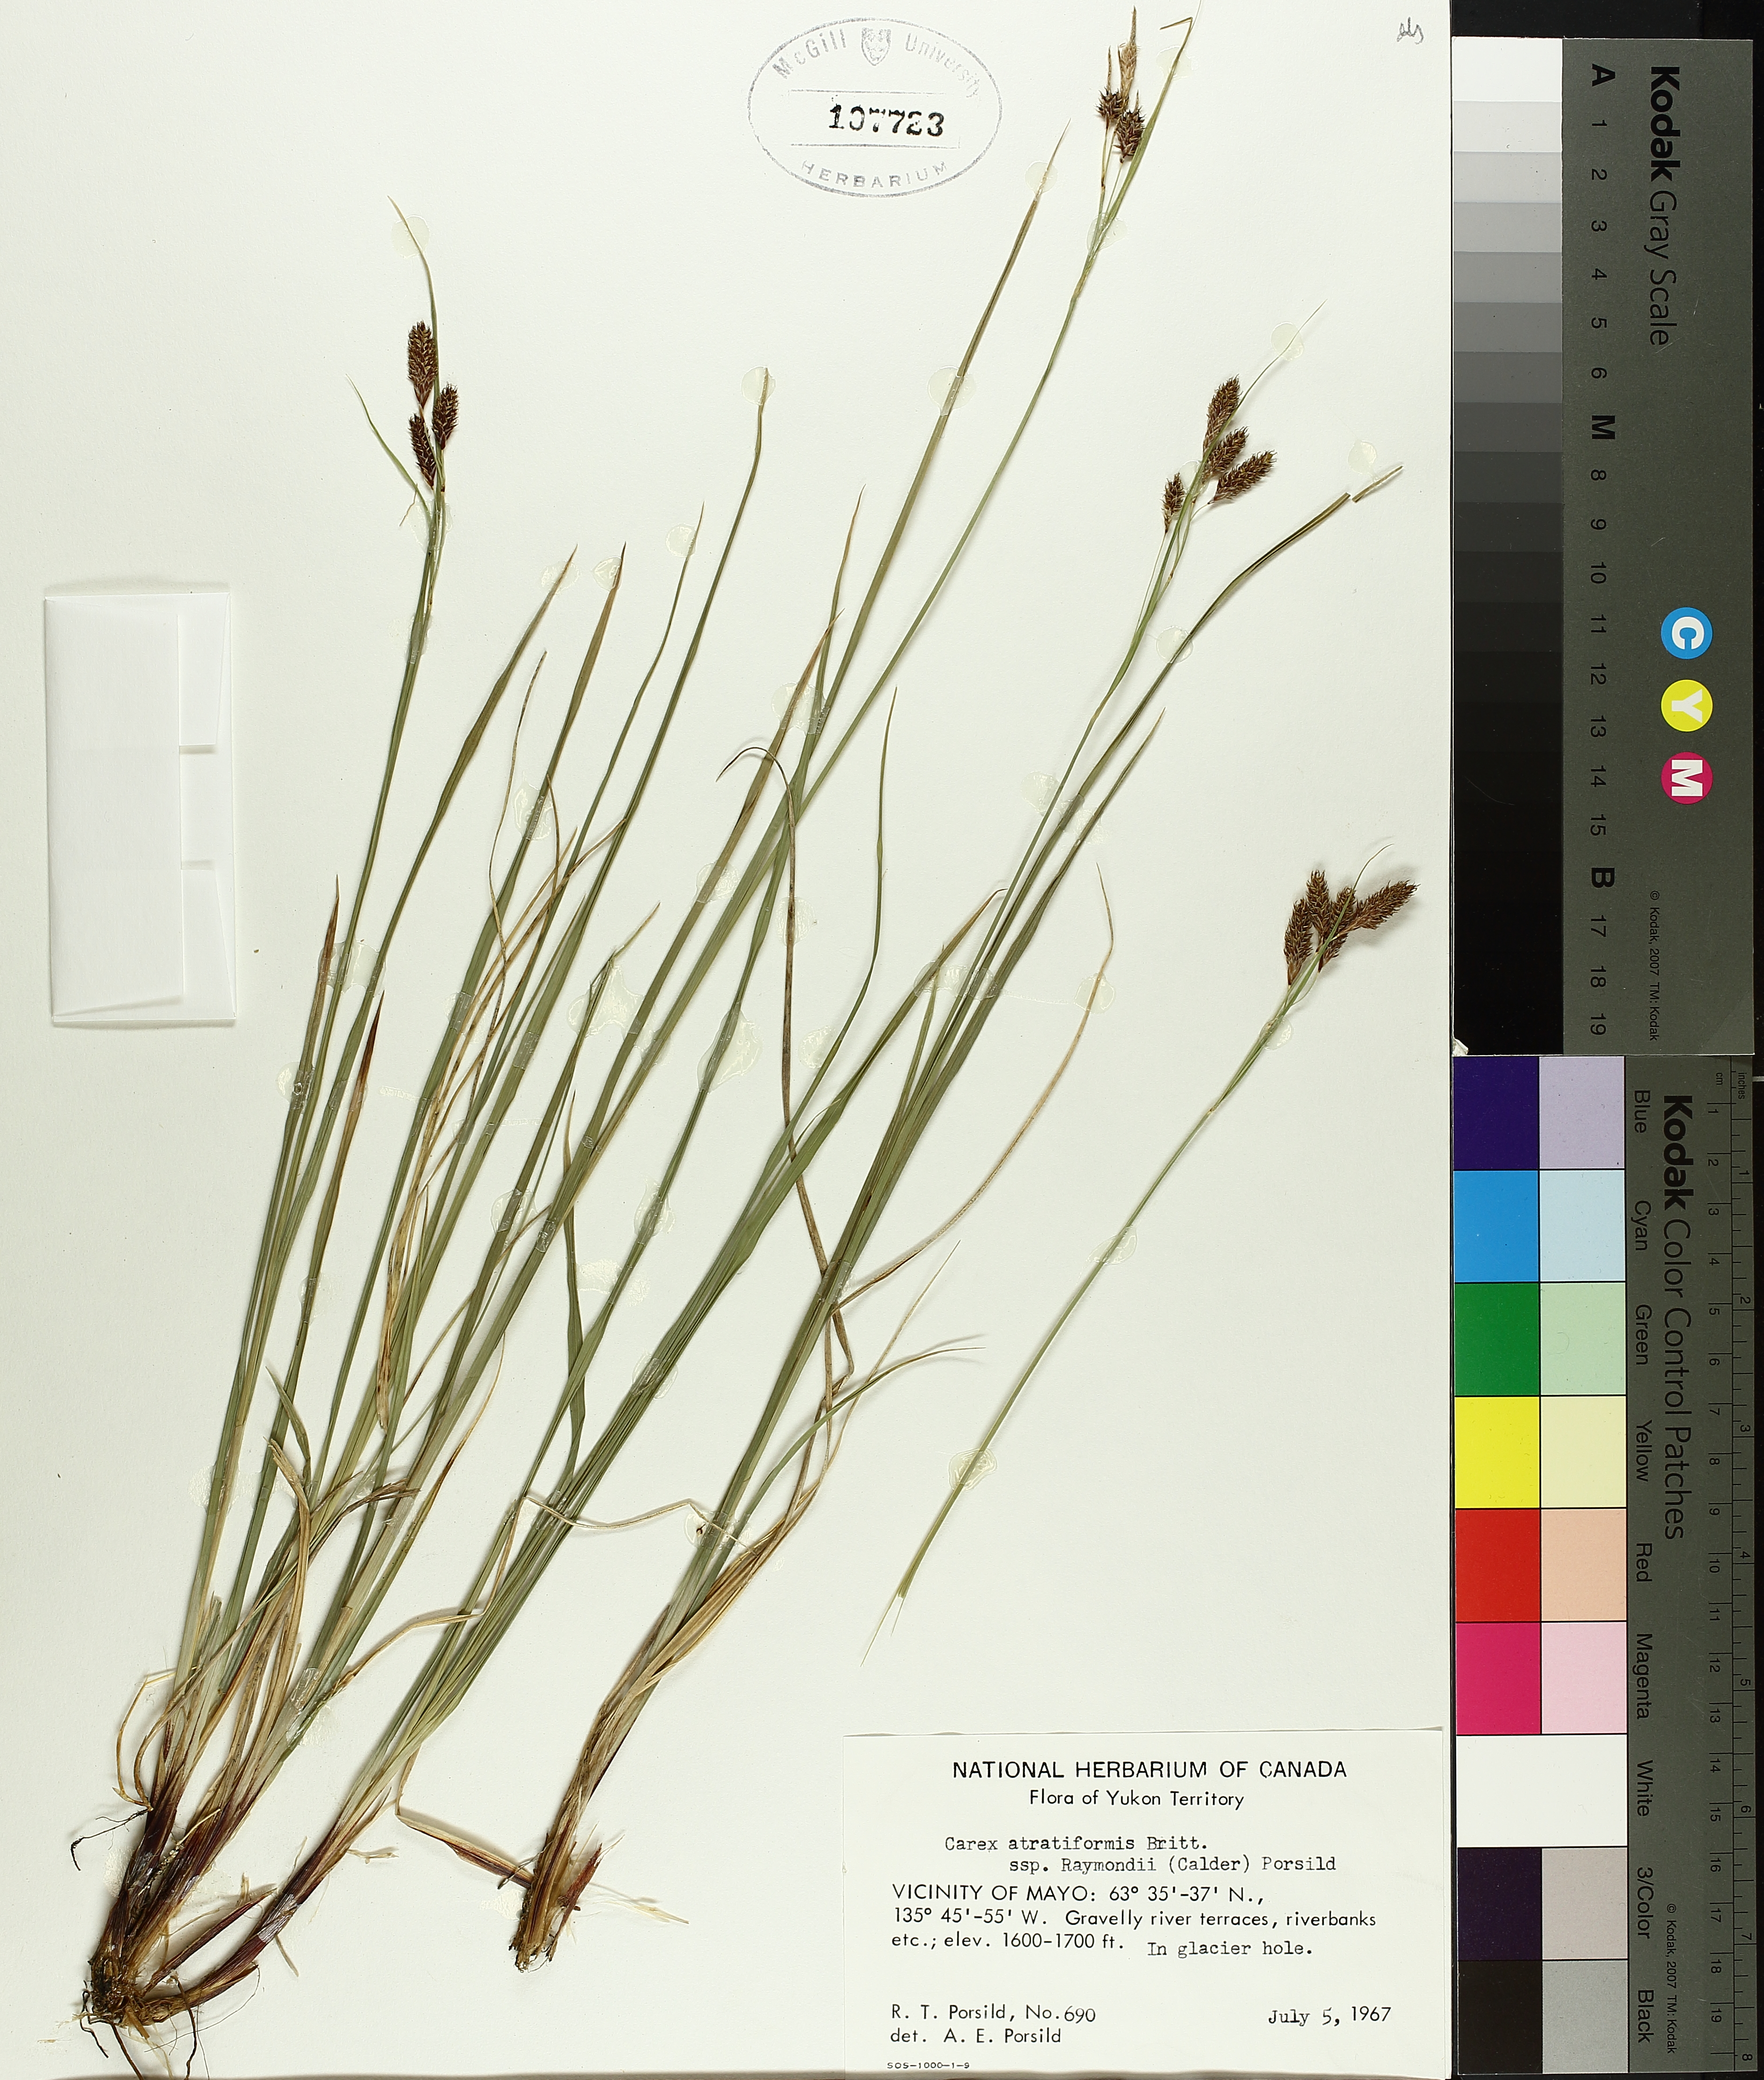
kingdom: Plantae
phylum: Tracheophyta
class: Liliopsida
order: Poales
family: Cyperaceae
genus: Carex
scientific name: Carex atratiformis
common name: Black sedge
